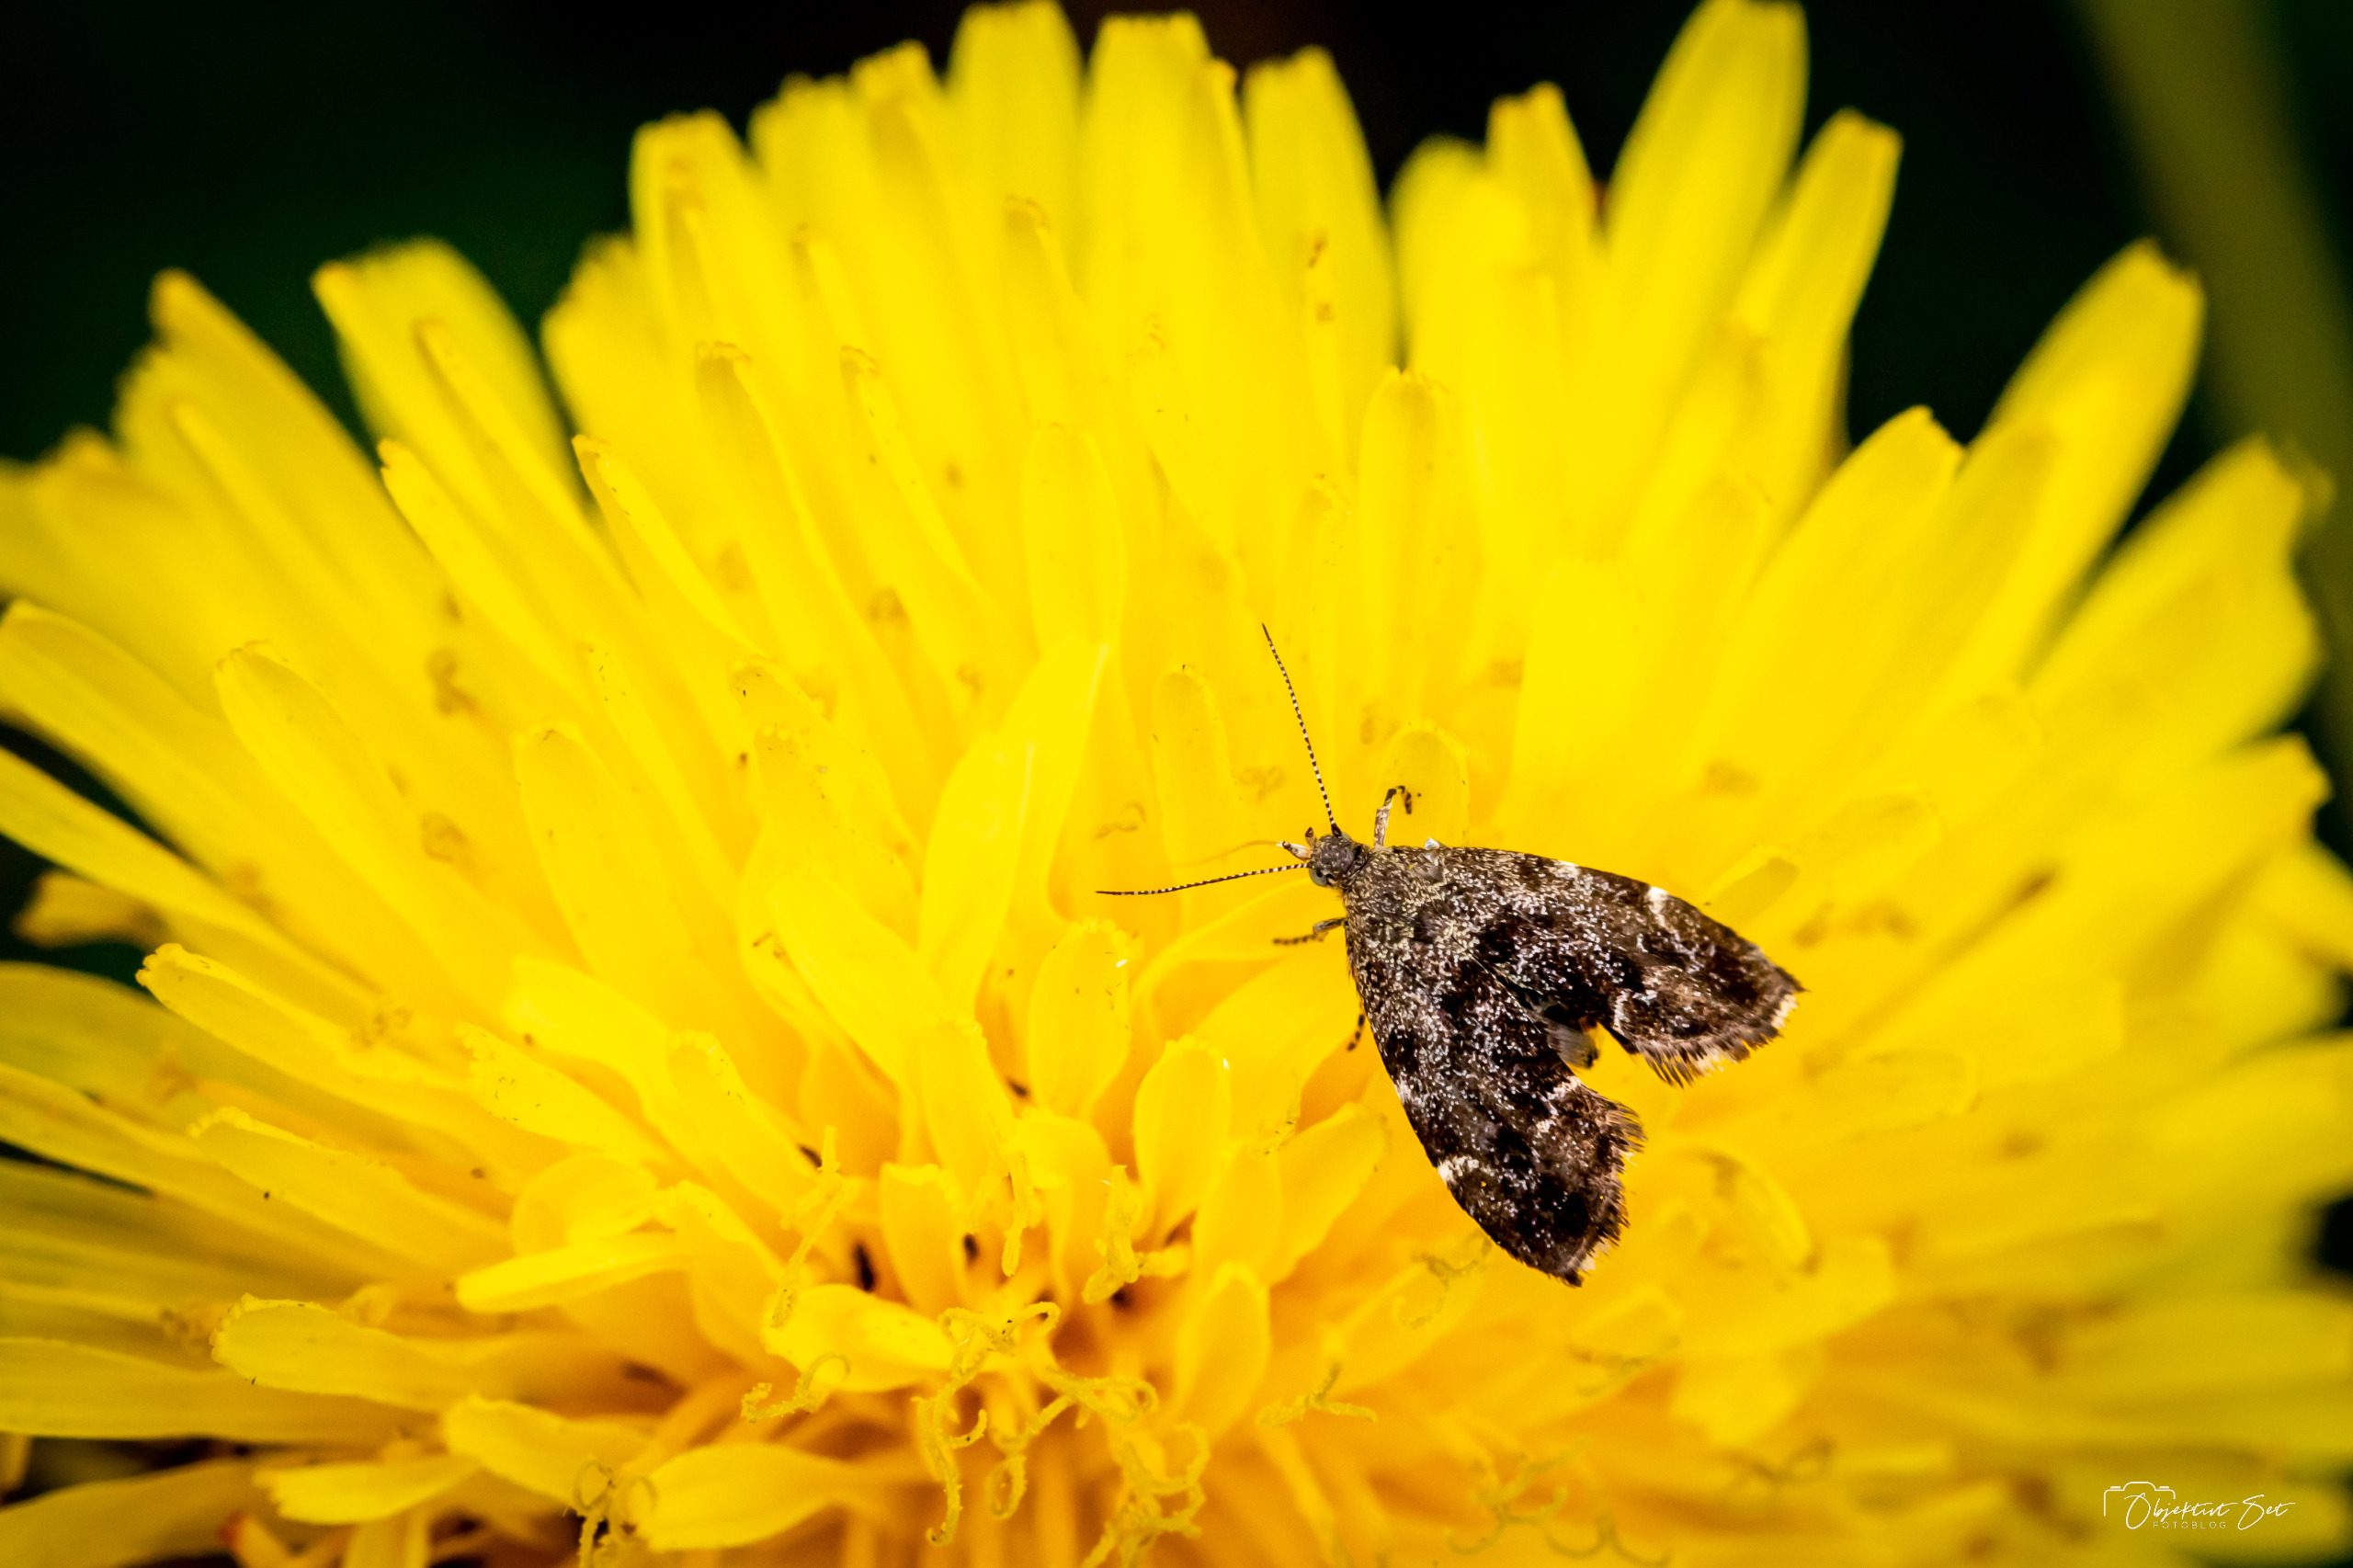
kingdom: Animalia
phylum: Arthropoda
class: Insecta
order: Lepidoptera
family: Choreutidae
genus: Anthophila
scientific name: Anthophila fabriciana
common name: Bredvinget nældevikler
